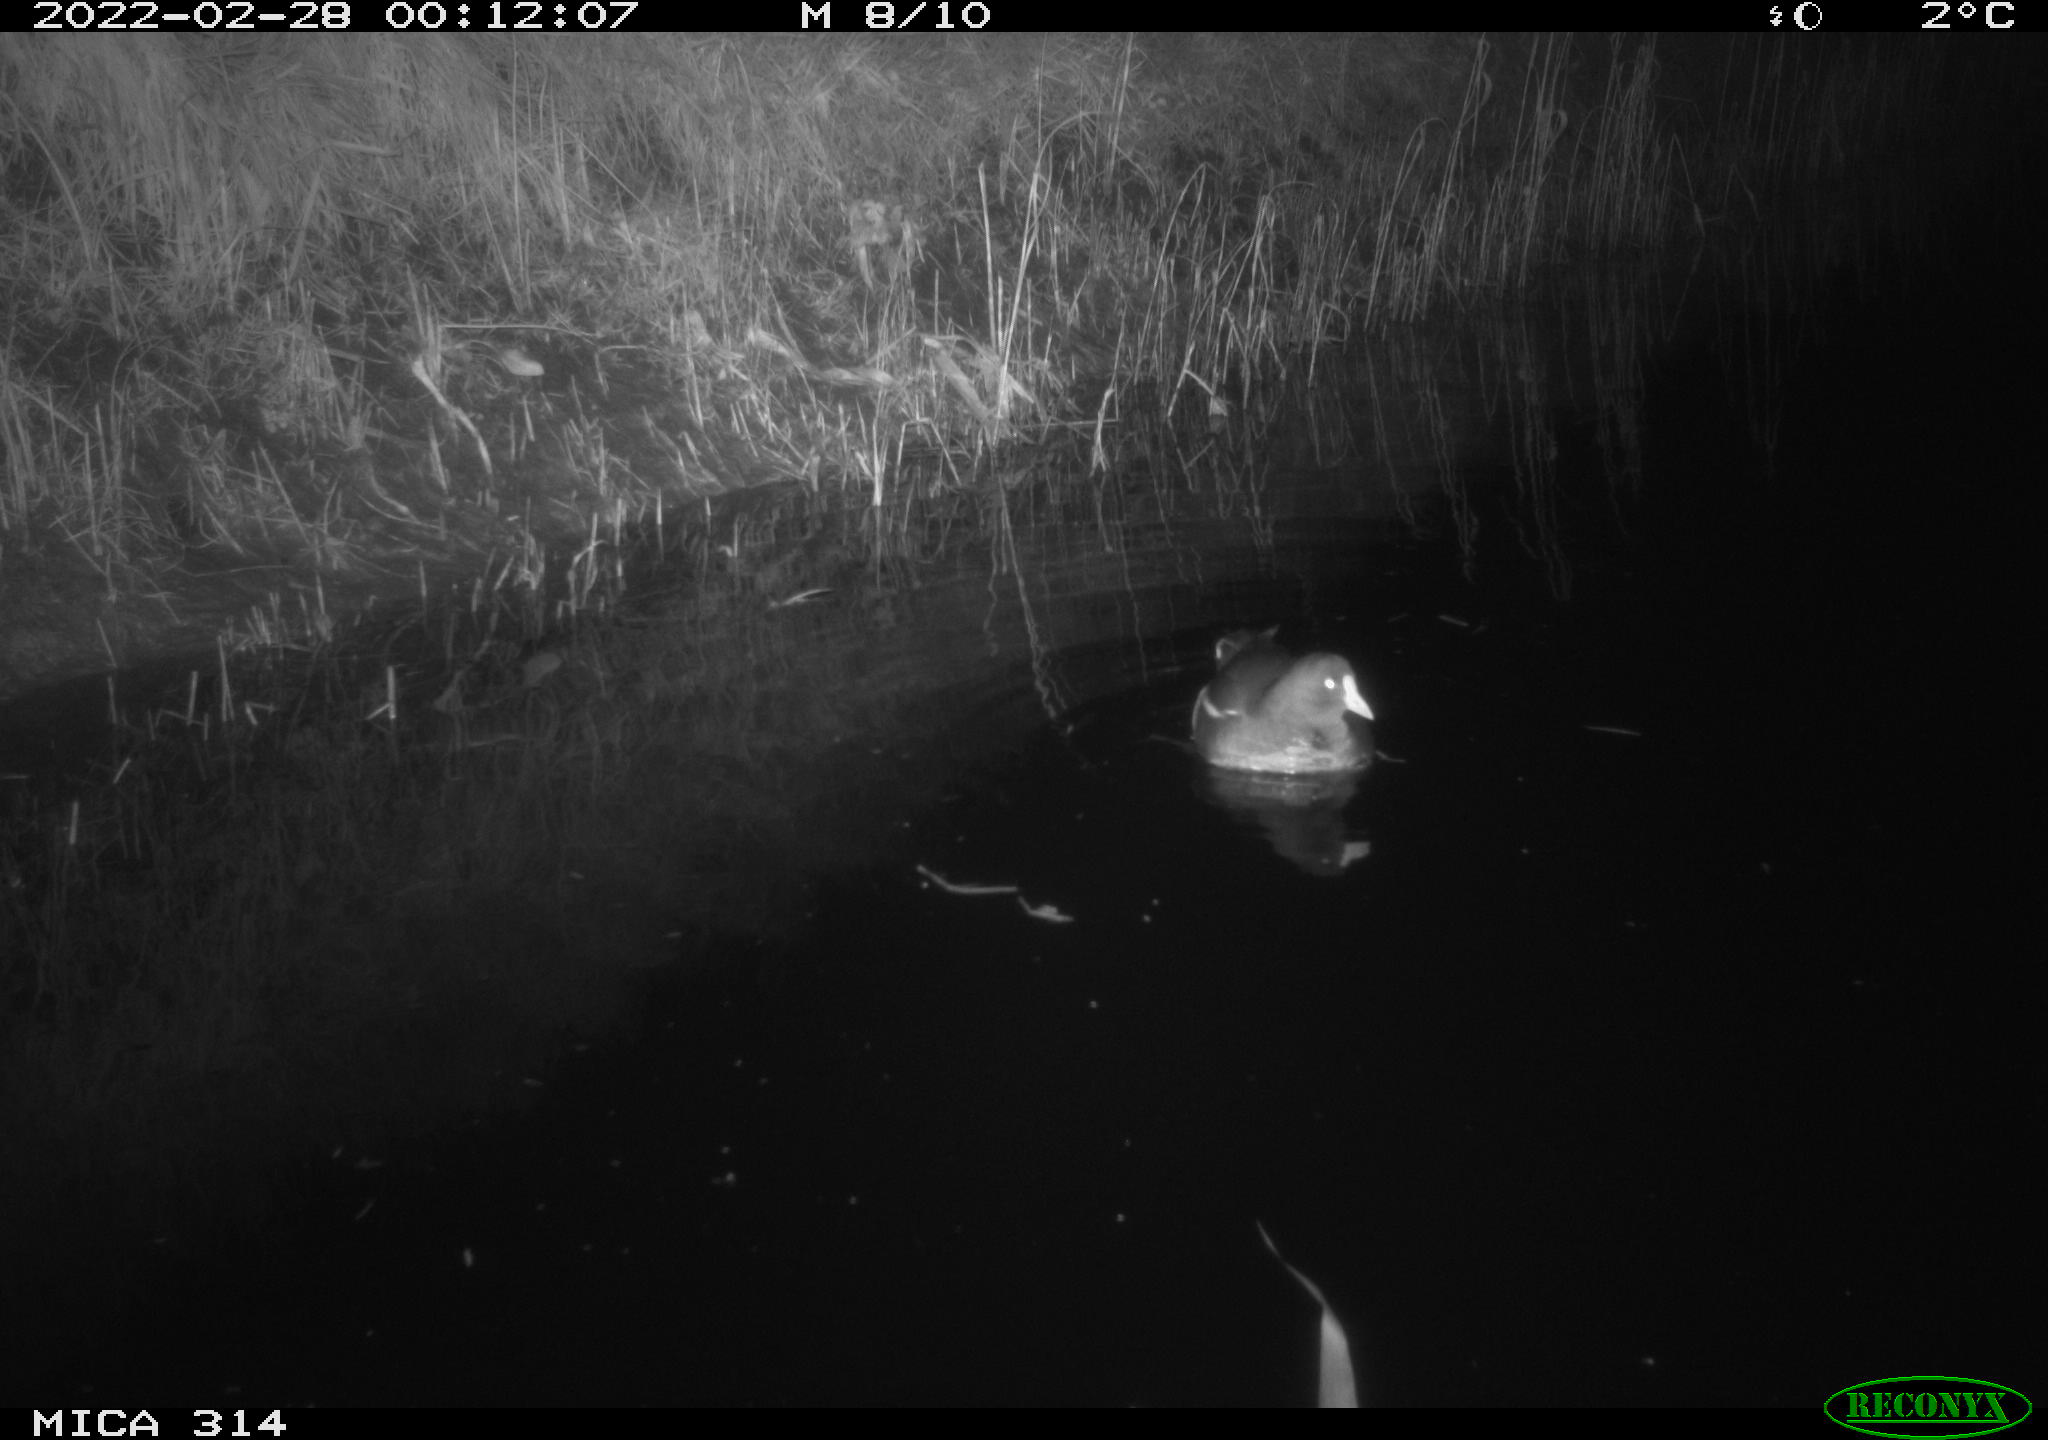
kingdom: Animalia
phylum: Chordata
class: Aves
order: Gruiformes
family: Rallidae
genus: Gallinula
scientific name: Gallinula chloropus
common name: Common moorhen
